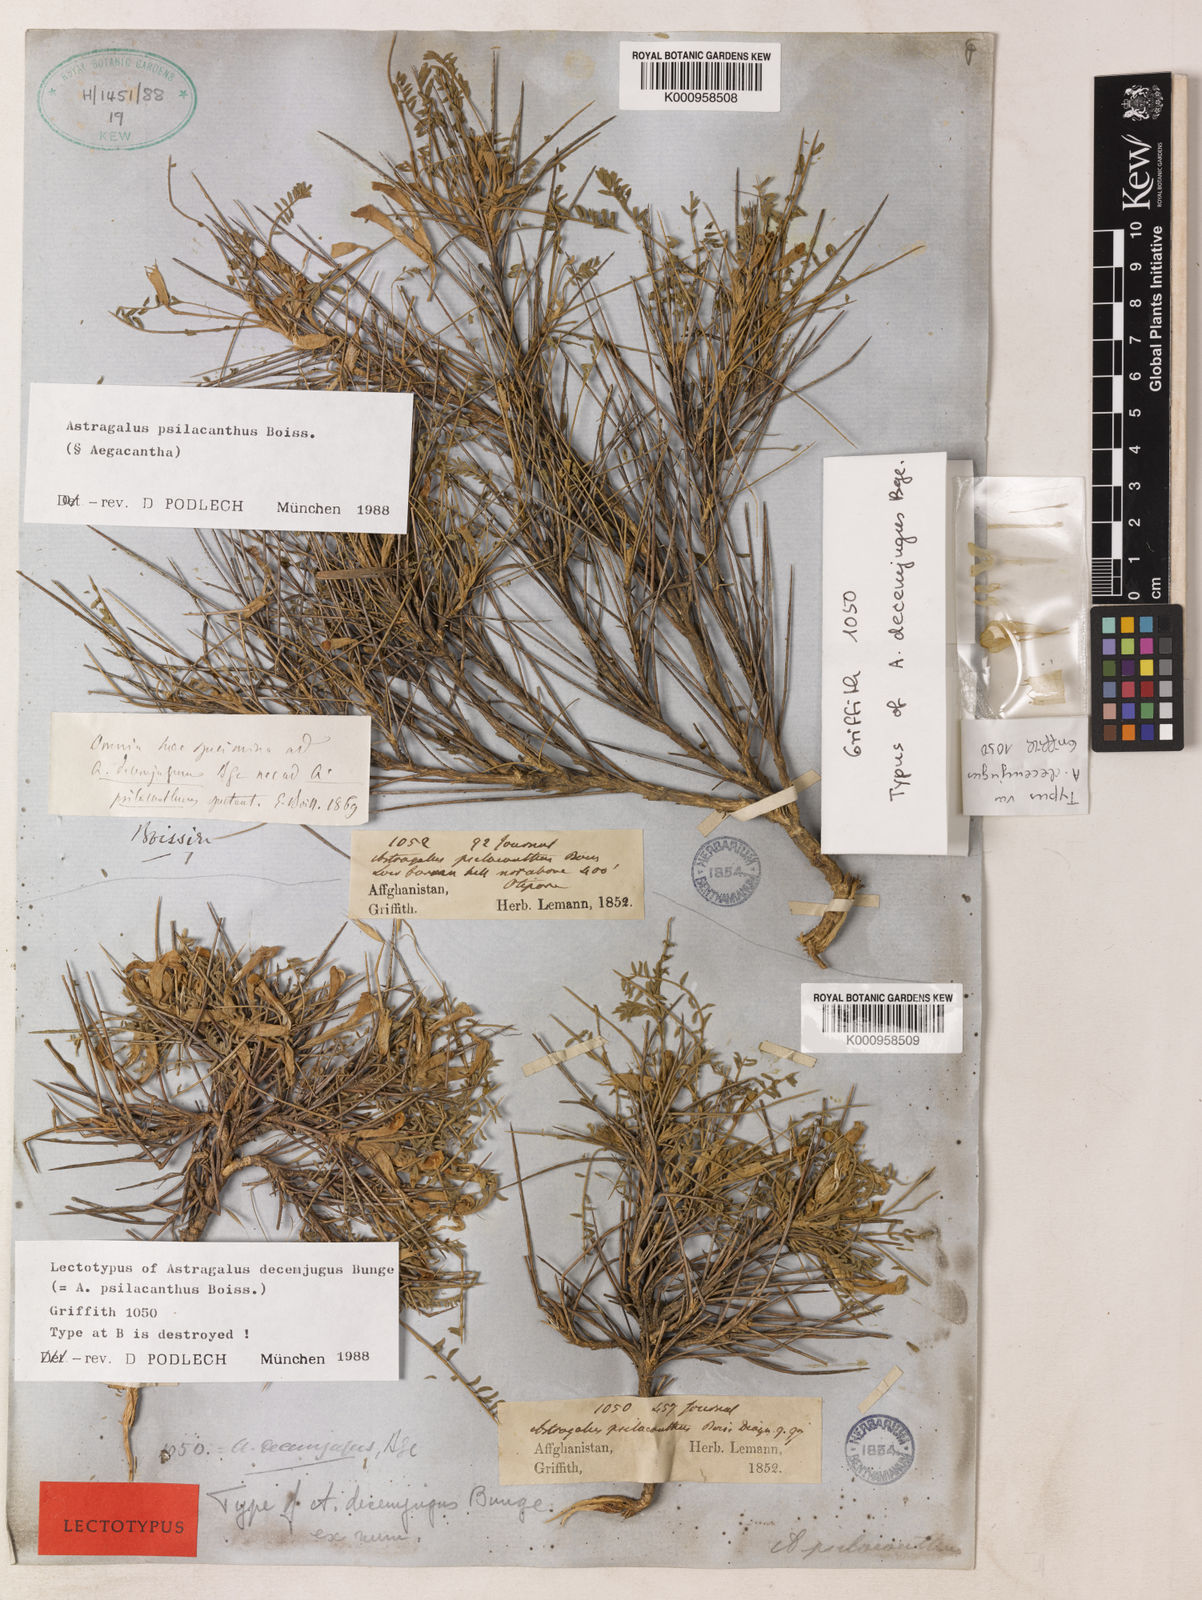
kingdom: Plantae
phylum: Tracheophyta
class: Magnoliopsida
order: Fabales
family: Fabaceae
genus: Astragalus
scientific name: Astragalus
